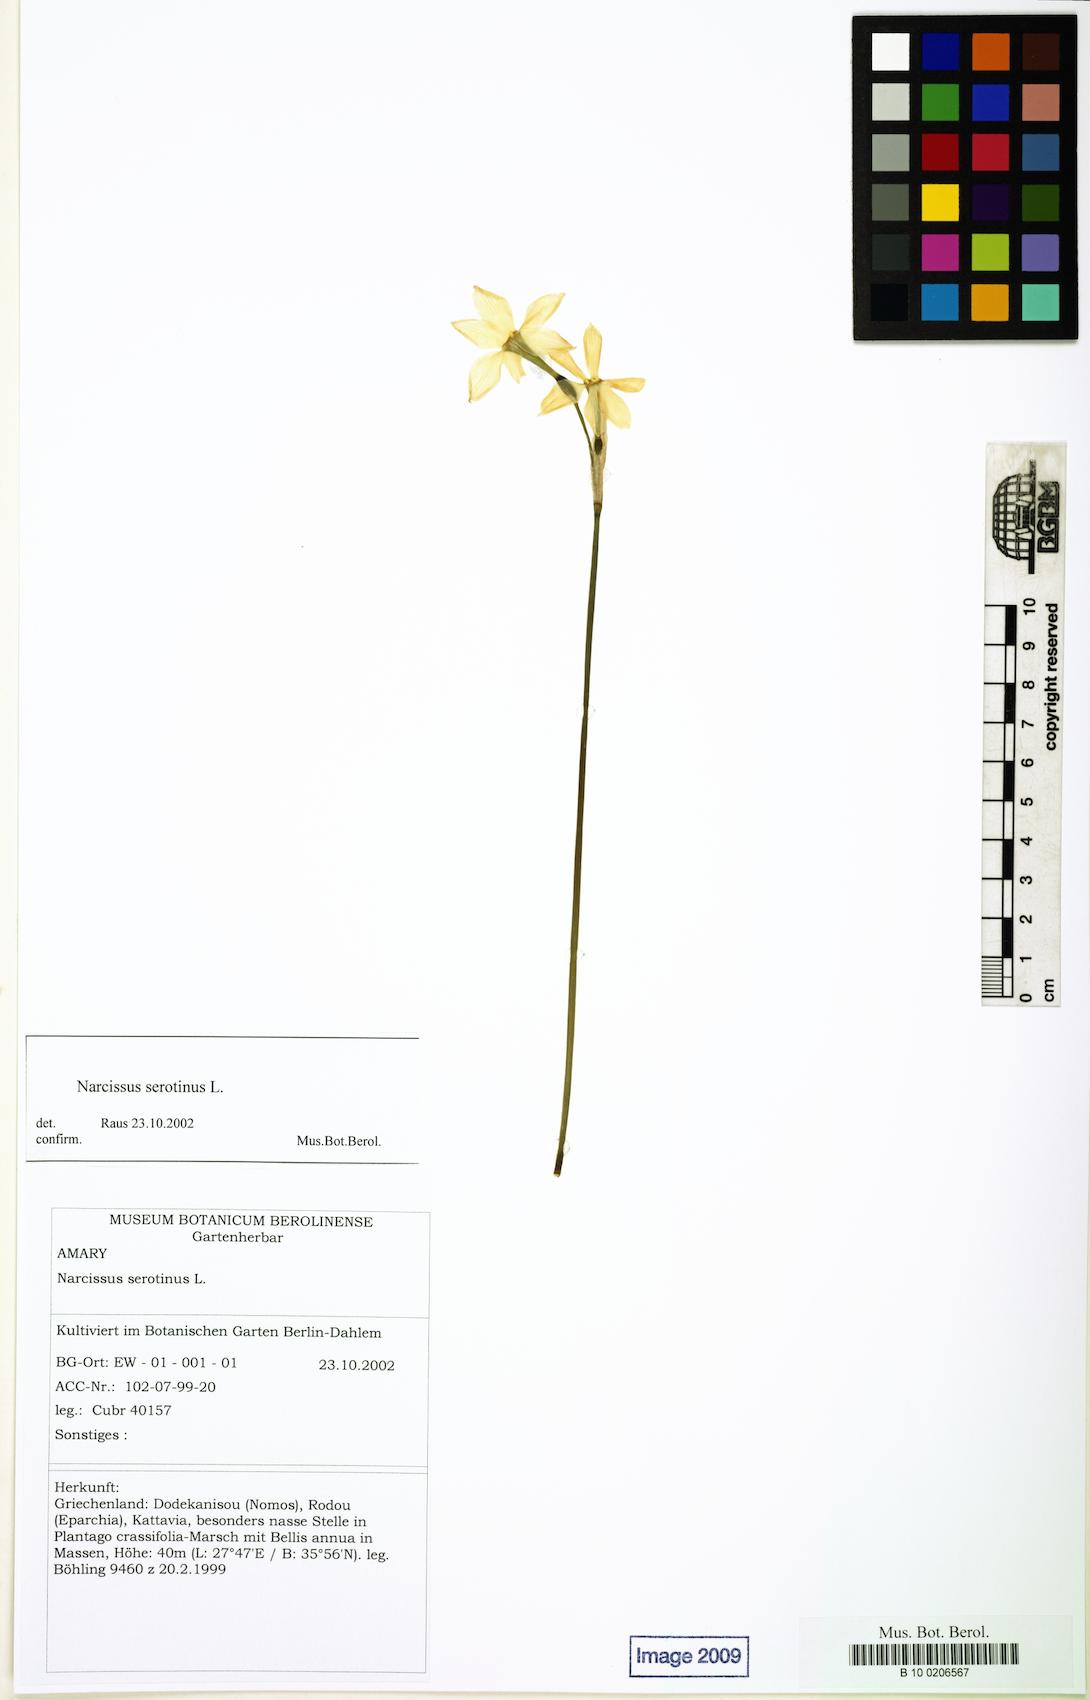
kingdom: Plantae
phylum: Tracheophyta
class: Liliopsida
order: Asparagales
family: Amaryllidaceae
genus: Narcissus
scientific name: Narcissus serotinus
